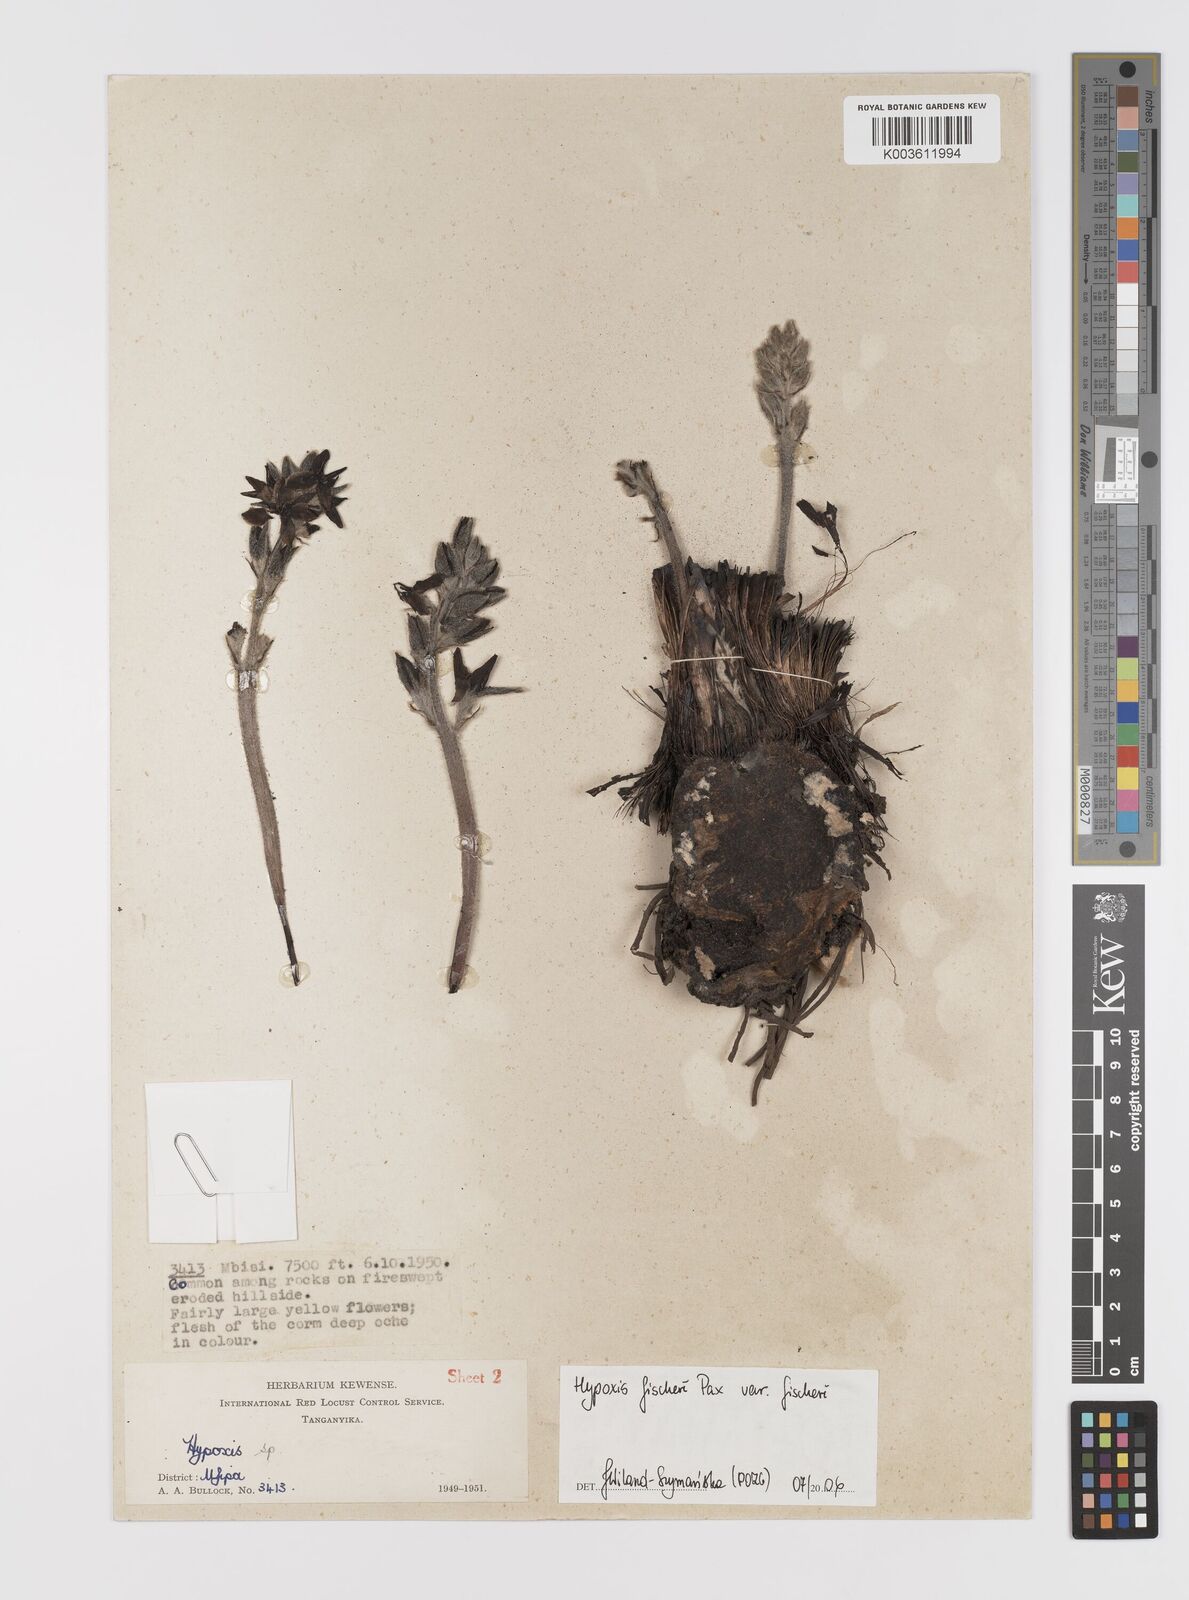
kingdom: Plantae
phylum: Tracheophyta
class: Liliopsida
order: Asparagales
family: Hypoxidaceae
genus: Hypoxis
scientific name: Hypoxis fischeri
